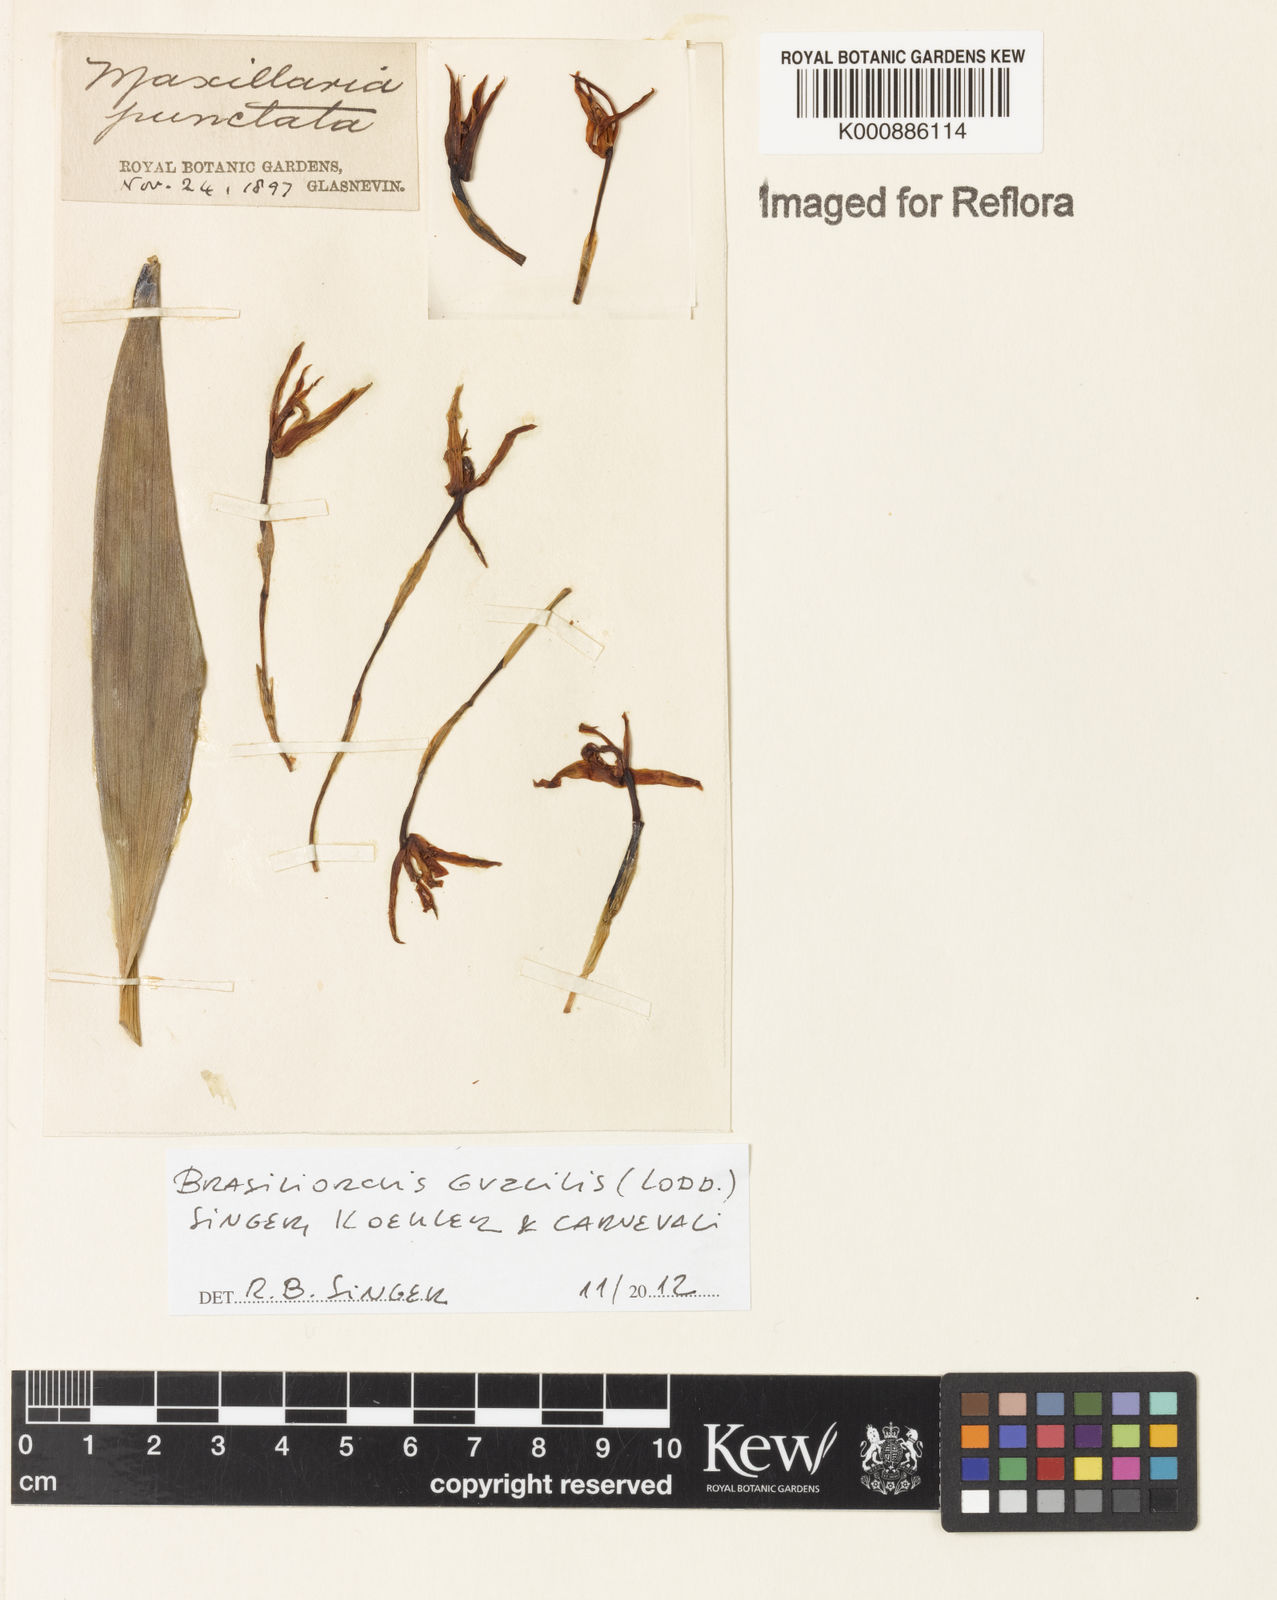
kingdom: Plantae
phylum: Tracheophyta
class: Liliopsida
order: Asparagales
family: Orchidaceae
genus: Maxillaria
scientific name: Maxillaria
